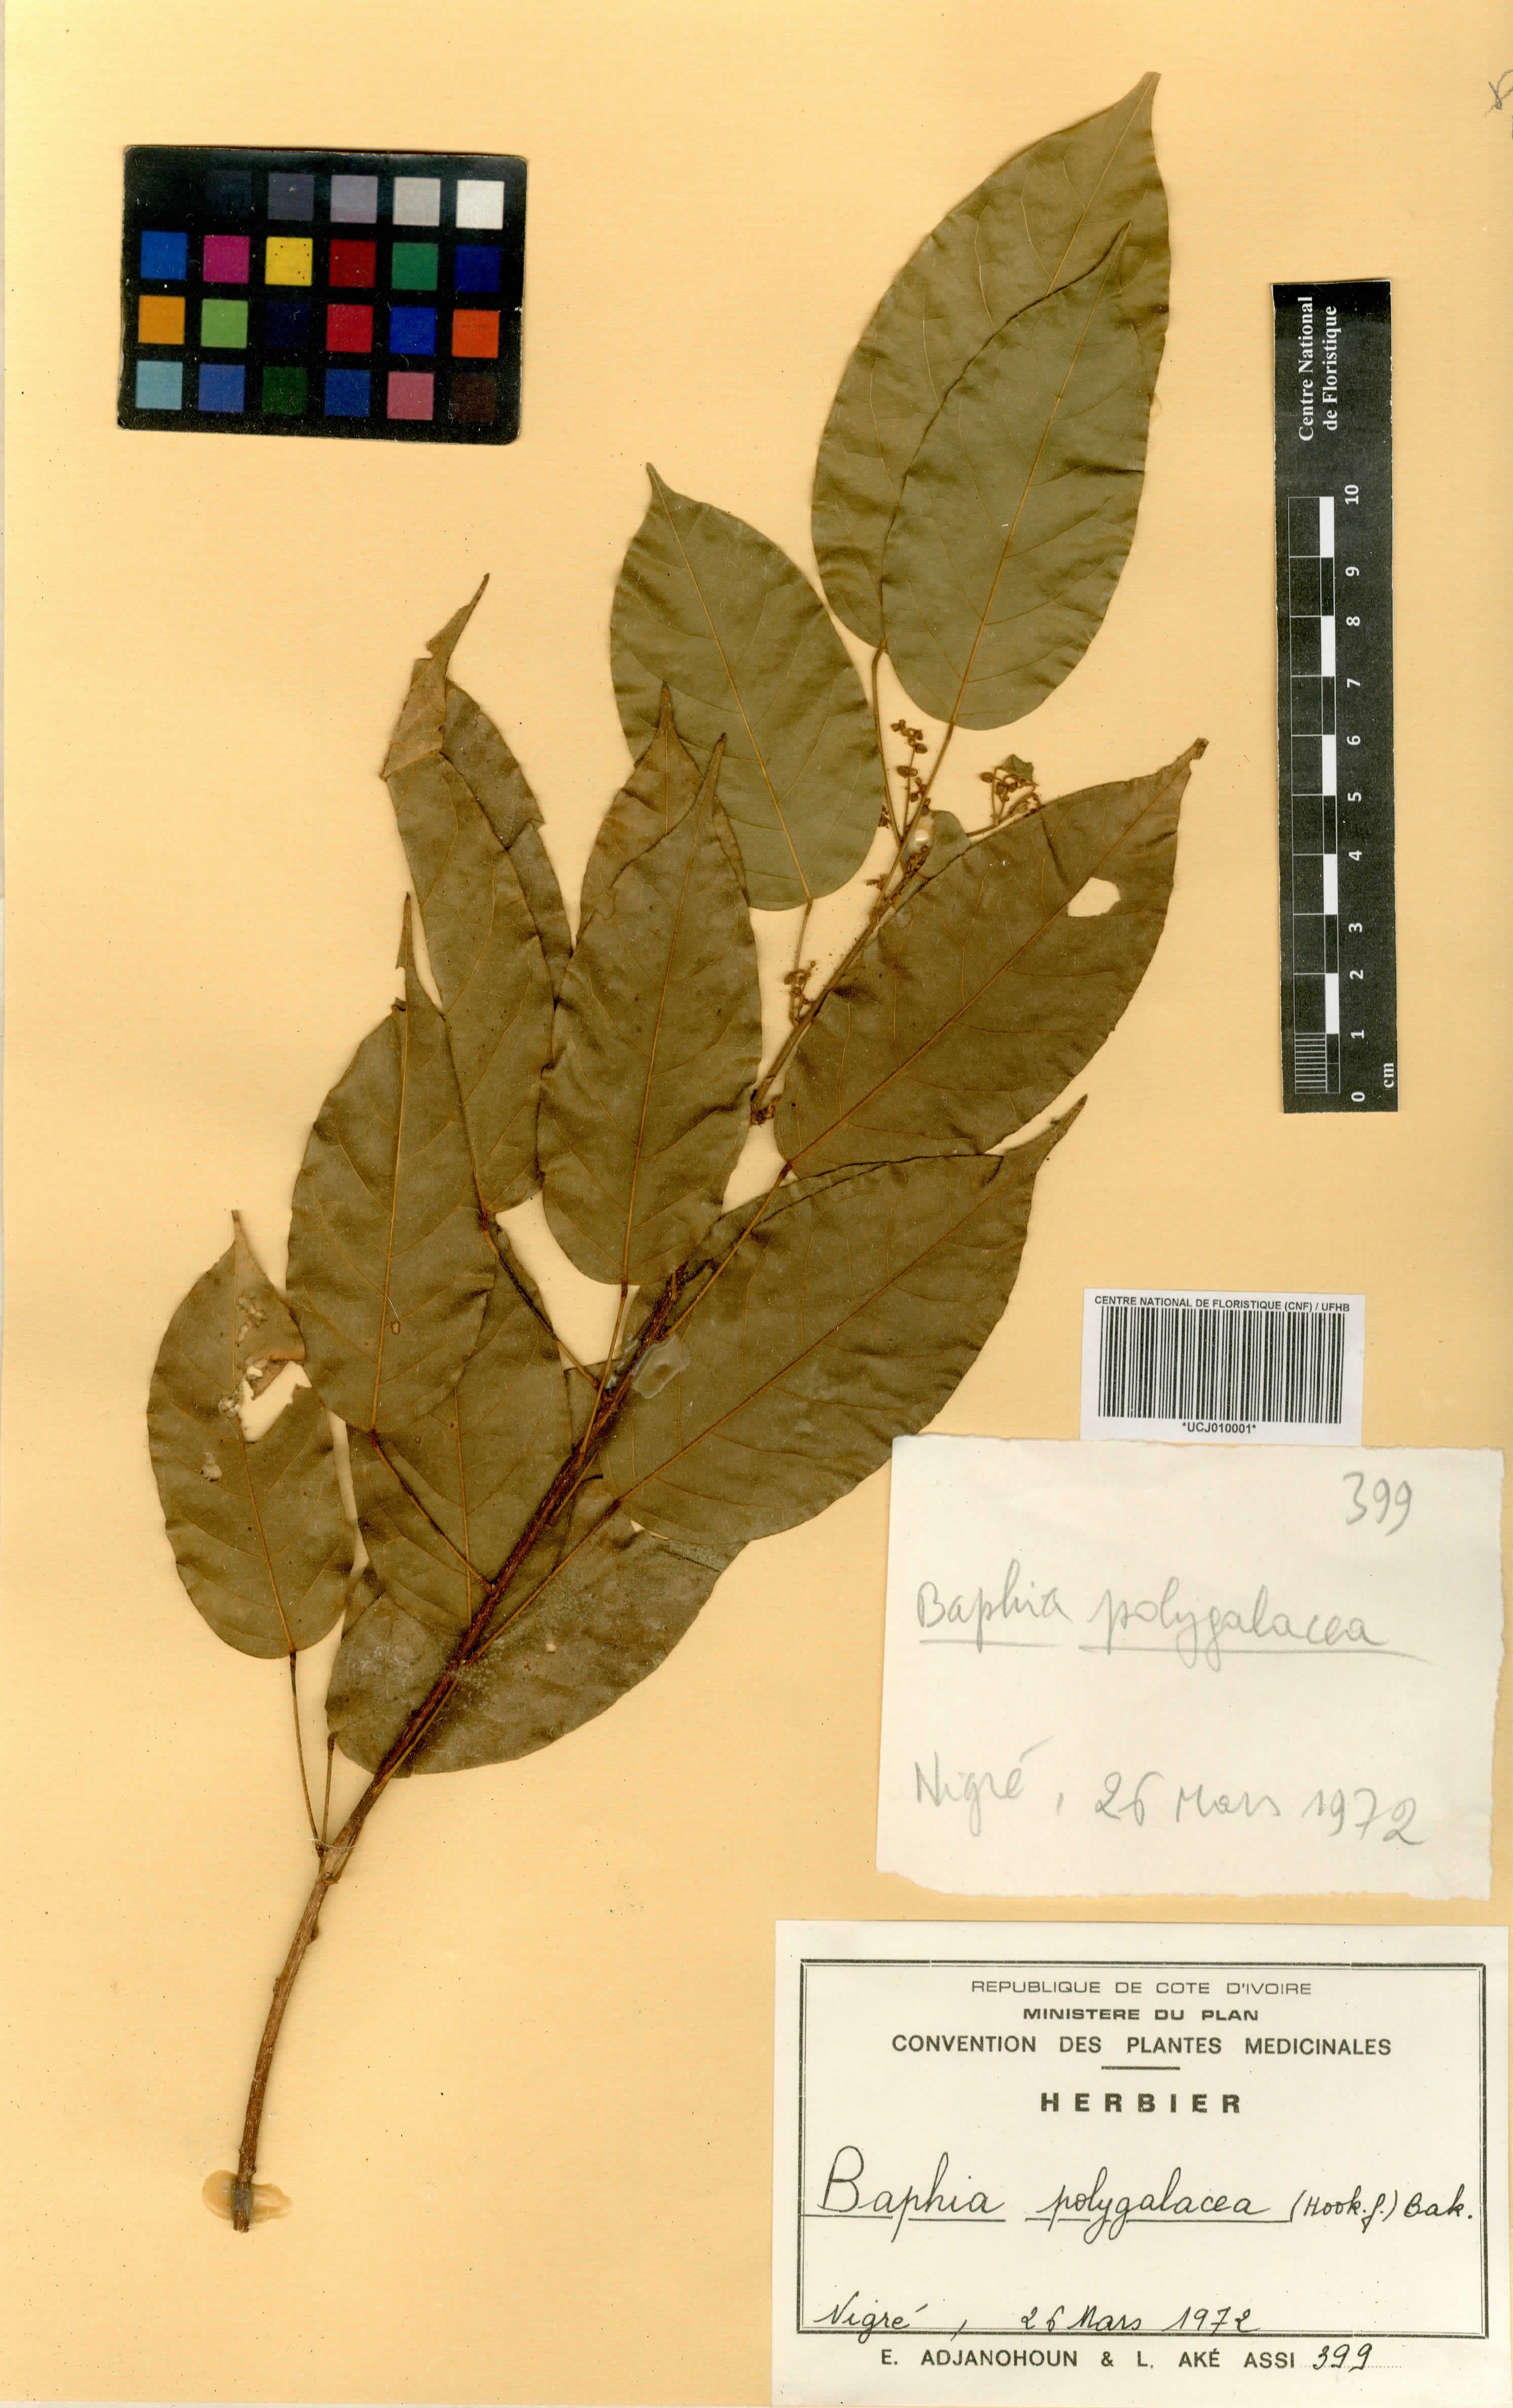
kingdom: Plantae
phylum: Tracheophyta
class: Magnoliopsida
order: Fabales
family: Fabaceae
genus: Baphia
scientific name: Baphia capparidifolia
